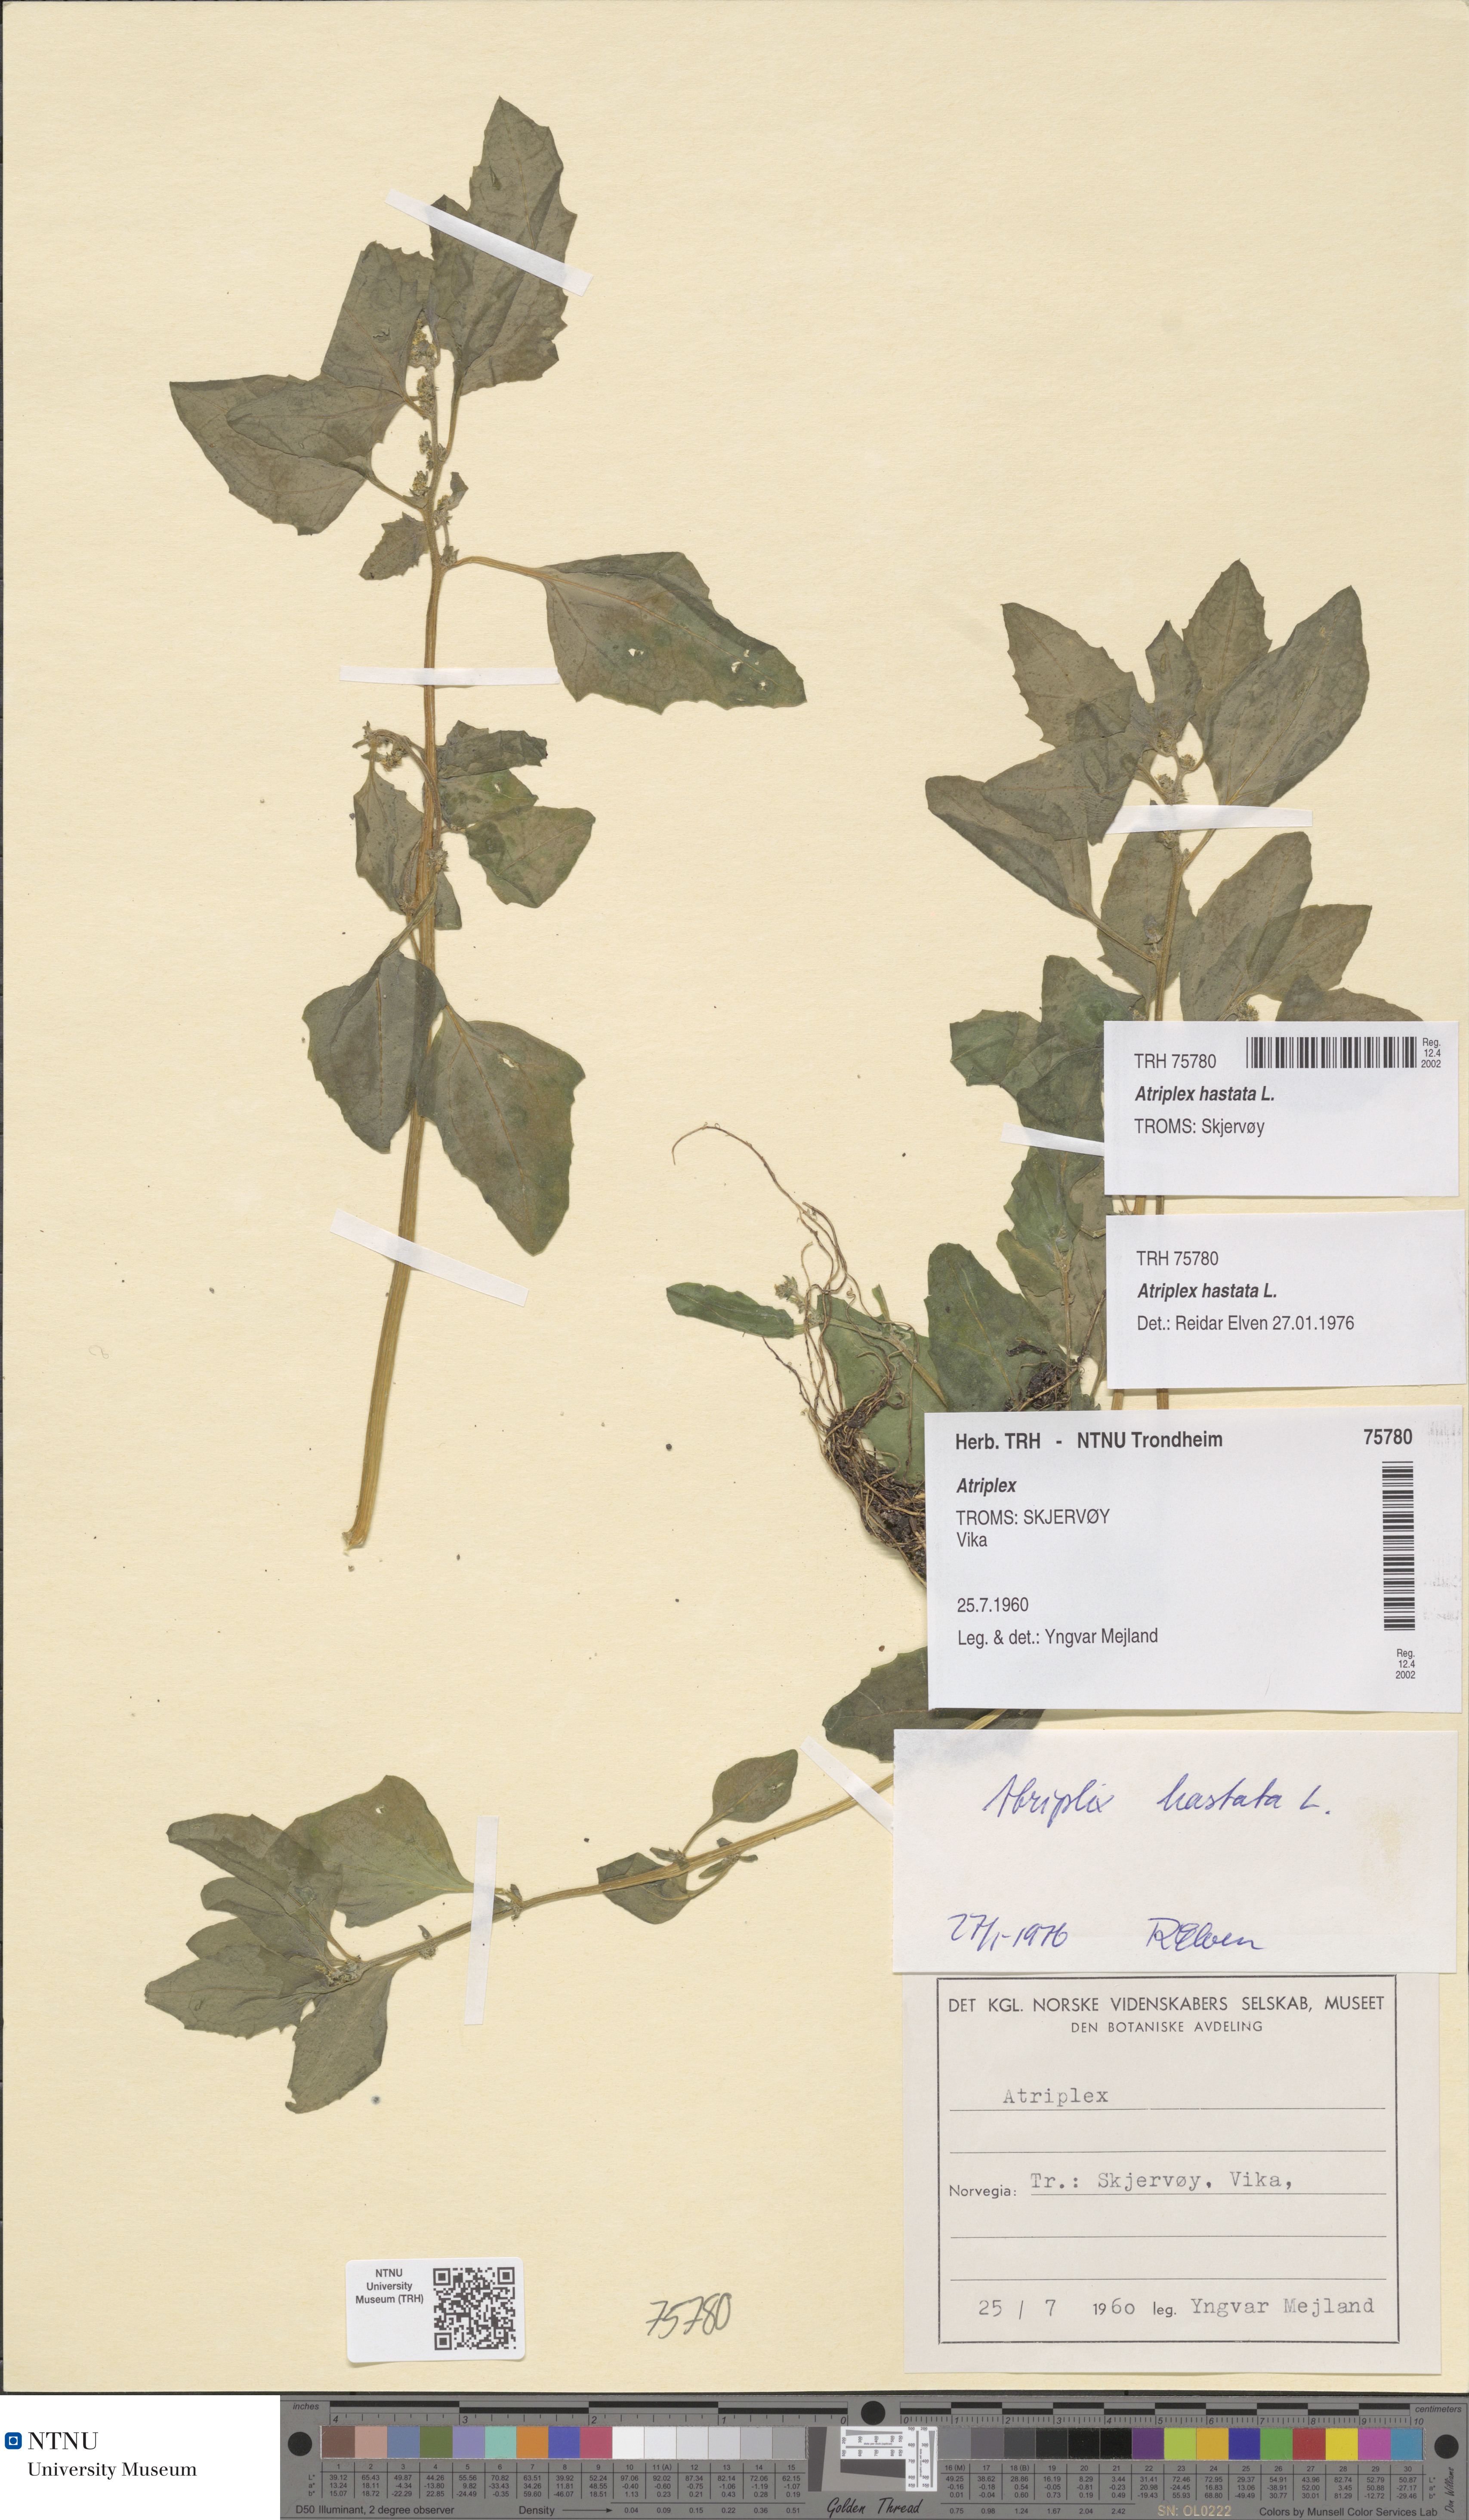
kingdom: Plantae
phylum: Tracheophyta
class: Magnoliopsida
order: Caryophyllales
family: Amaranthaceae
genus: Atriplex
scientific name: Atriplex prostrata
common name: Spear-leaved orache
